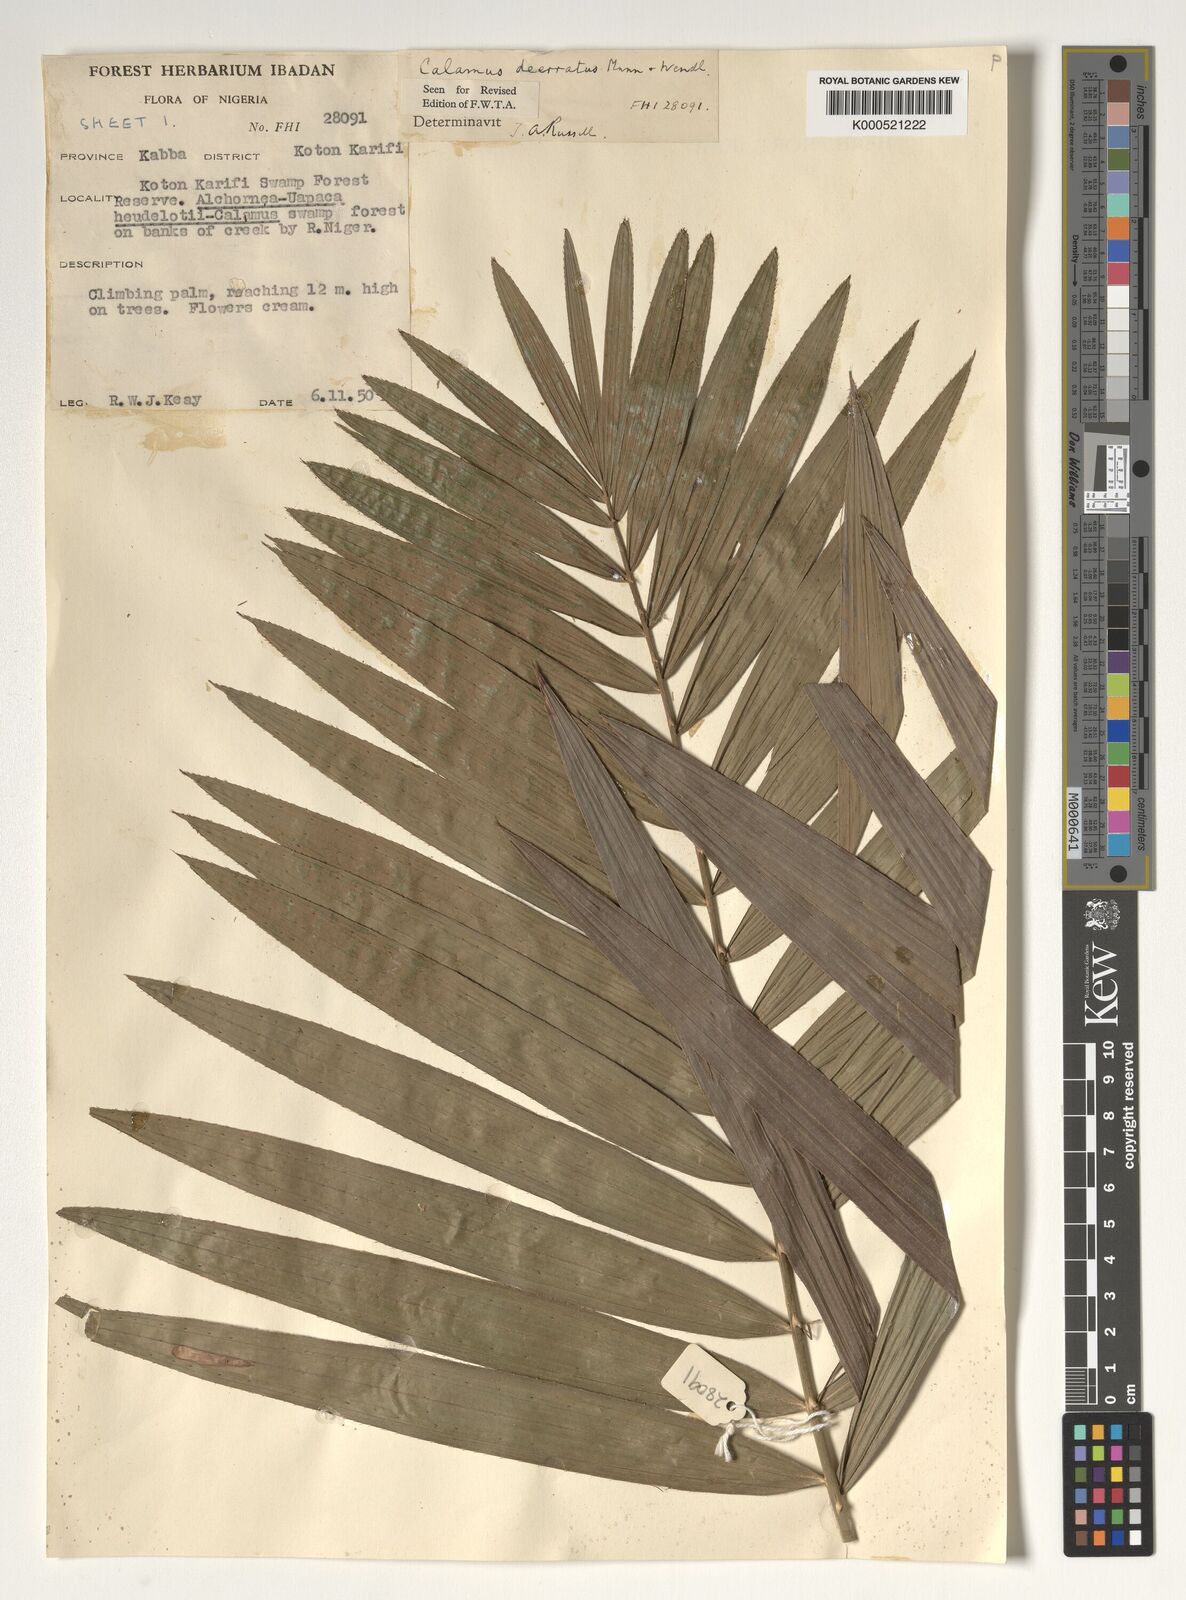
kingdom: Plantae
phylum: Tracheophyta
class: Liliopsida
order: Arecales
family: Arecaceae
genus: Calamus
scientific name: Calamus deerratus
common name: Rattan
